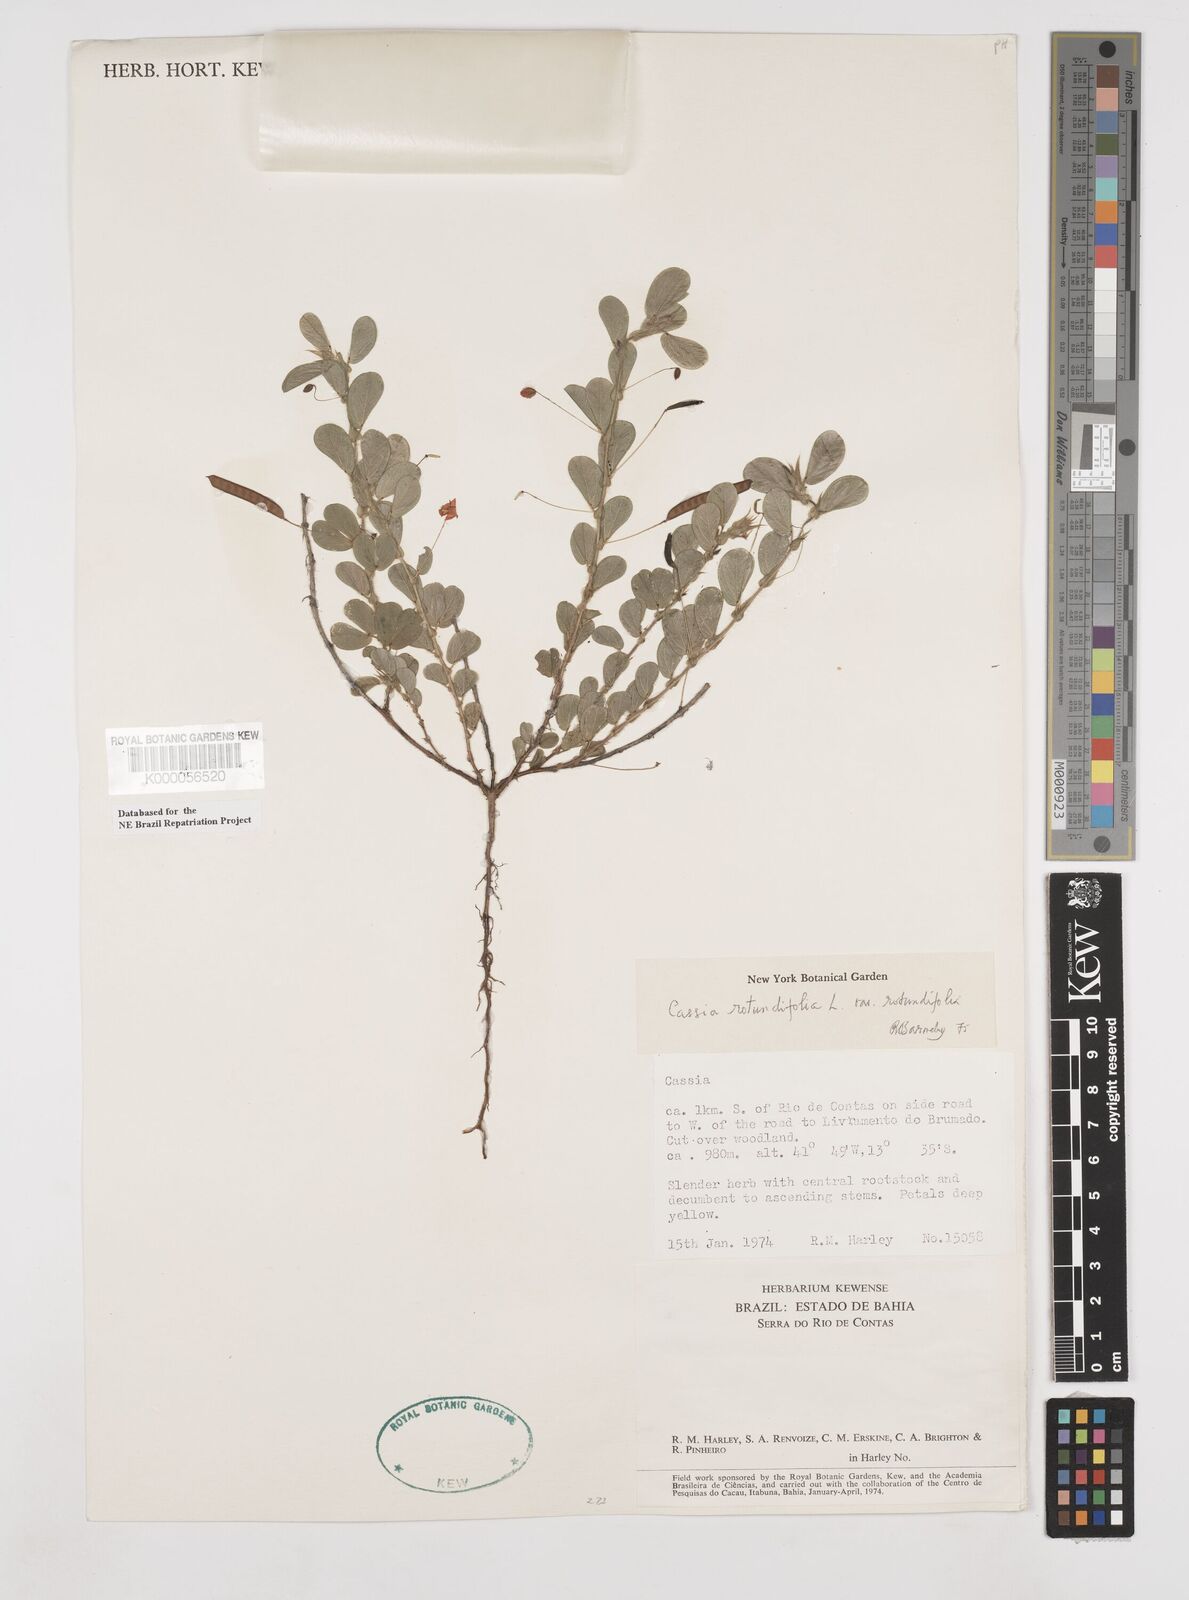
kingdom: Plantae
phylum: Tracheophyta
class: Magnoliopsida
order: Fabales
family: Fabaceae
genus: Chamaecrista
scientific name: Chamaecrista rotundifolia
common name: Round-leaf cassia
